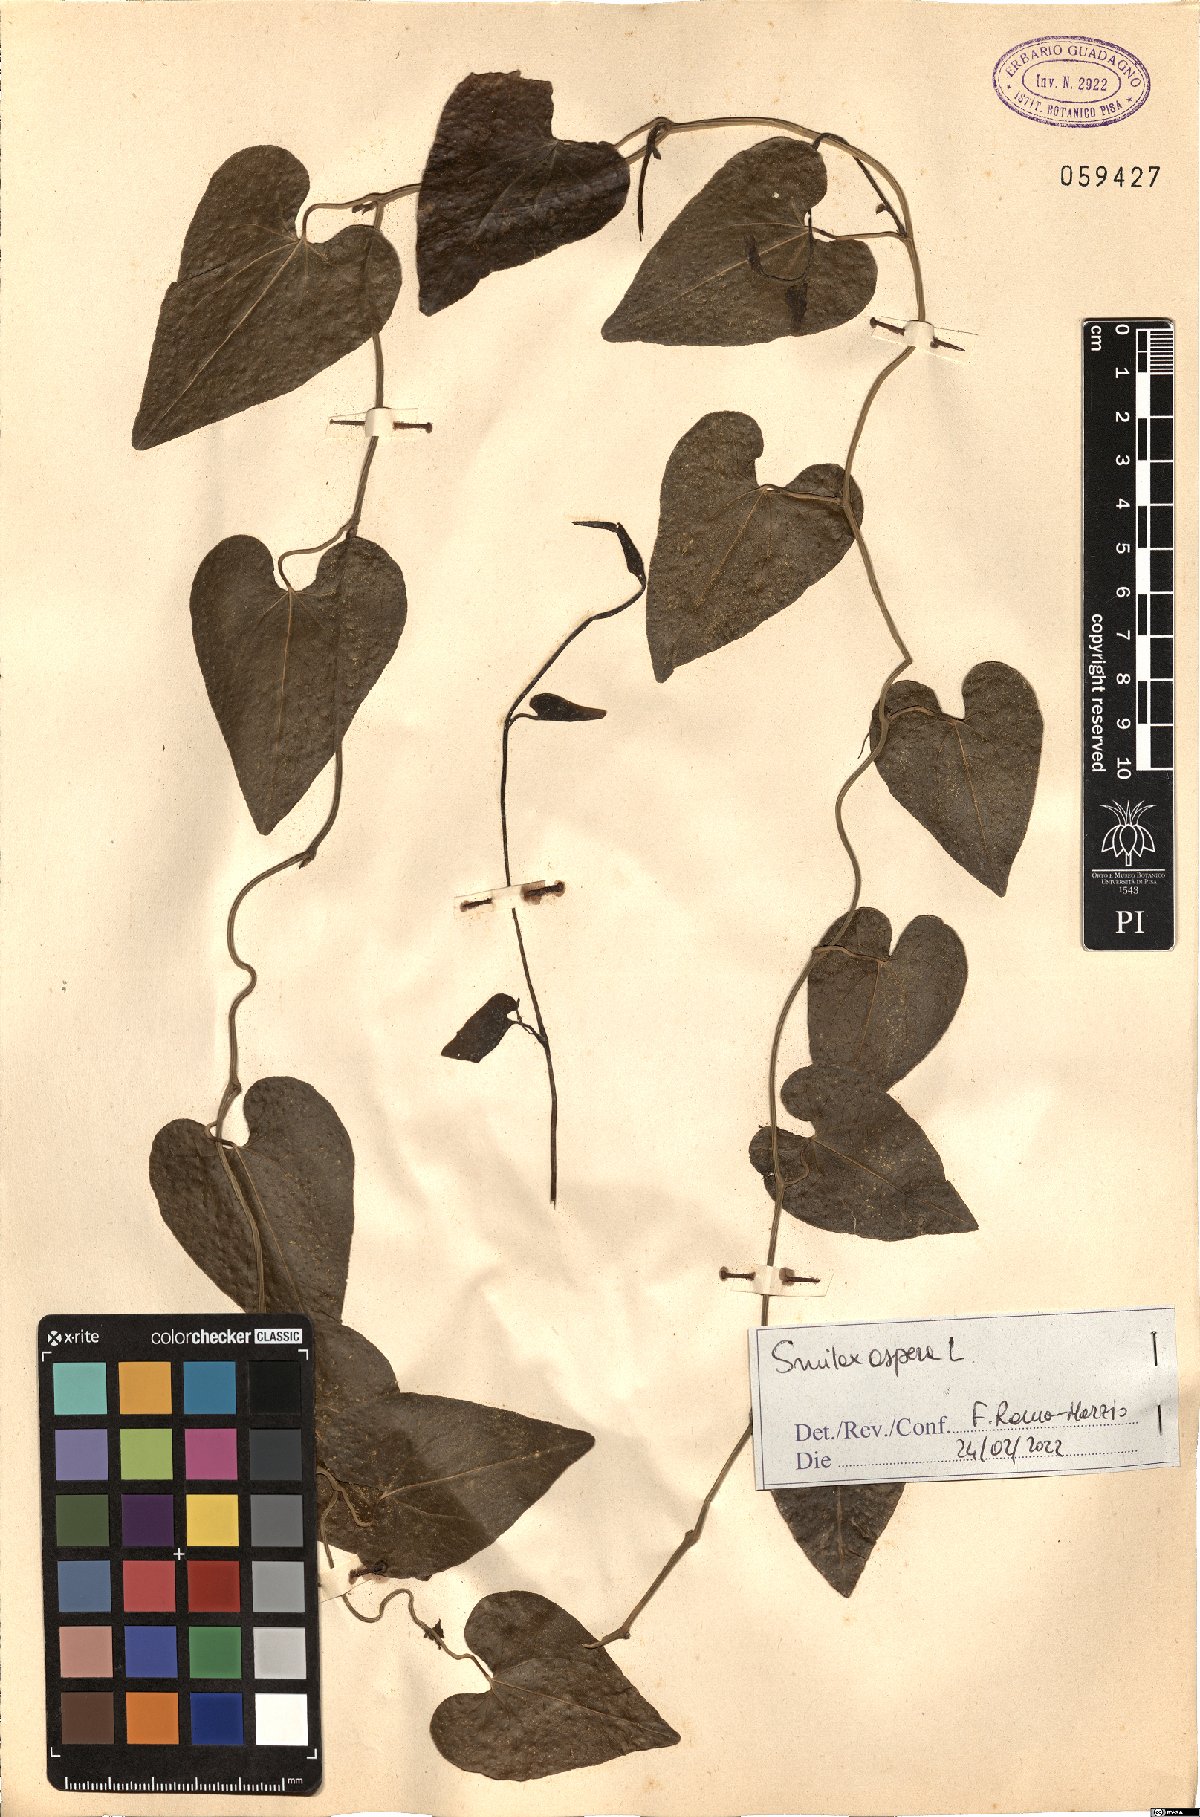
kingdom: Plantae
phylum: Tracheophyta
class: Liliopsida
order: Liliales
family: Smilacaceae
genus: Smilax
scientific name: Smilax aspera
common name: Common smilax
